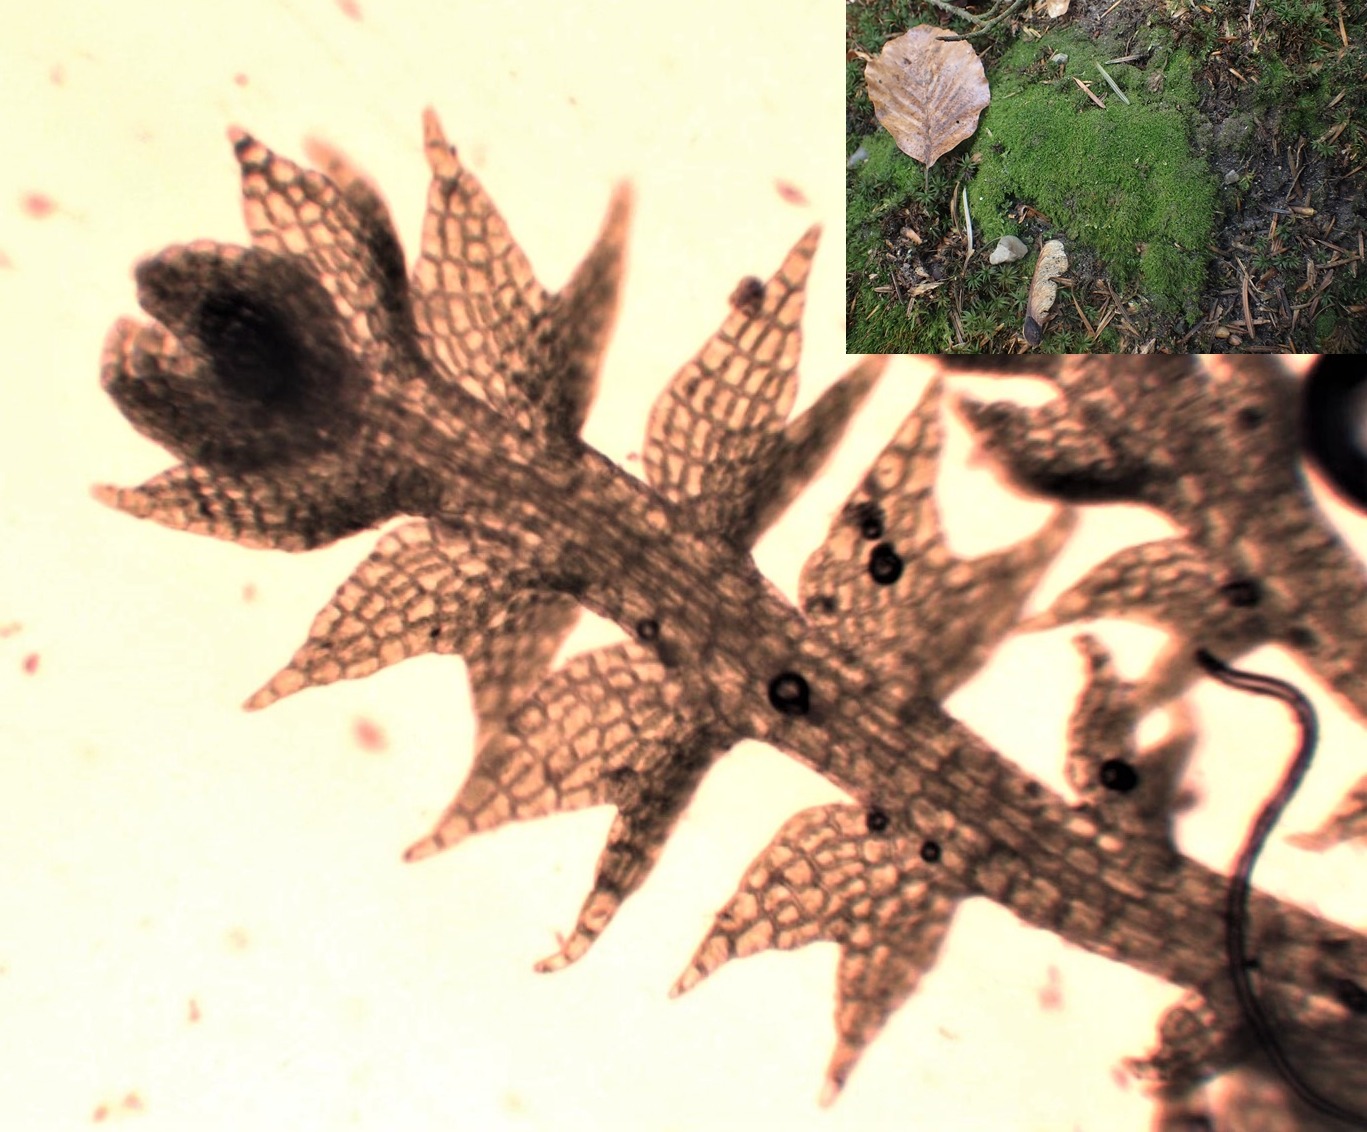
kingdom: Plantae
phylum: Marchantiophyta
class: Jungermanniopsida
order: Jungermanniales
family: Cephaloziaceae
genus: Cephalozia
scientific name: Cephalozia bicuspidata
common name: Tvespidset kantbæger
